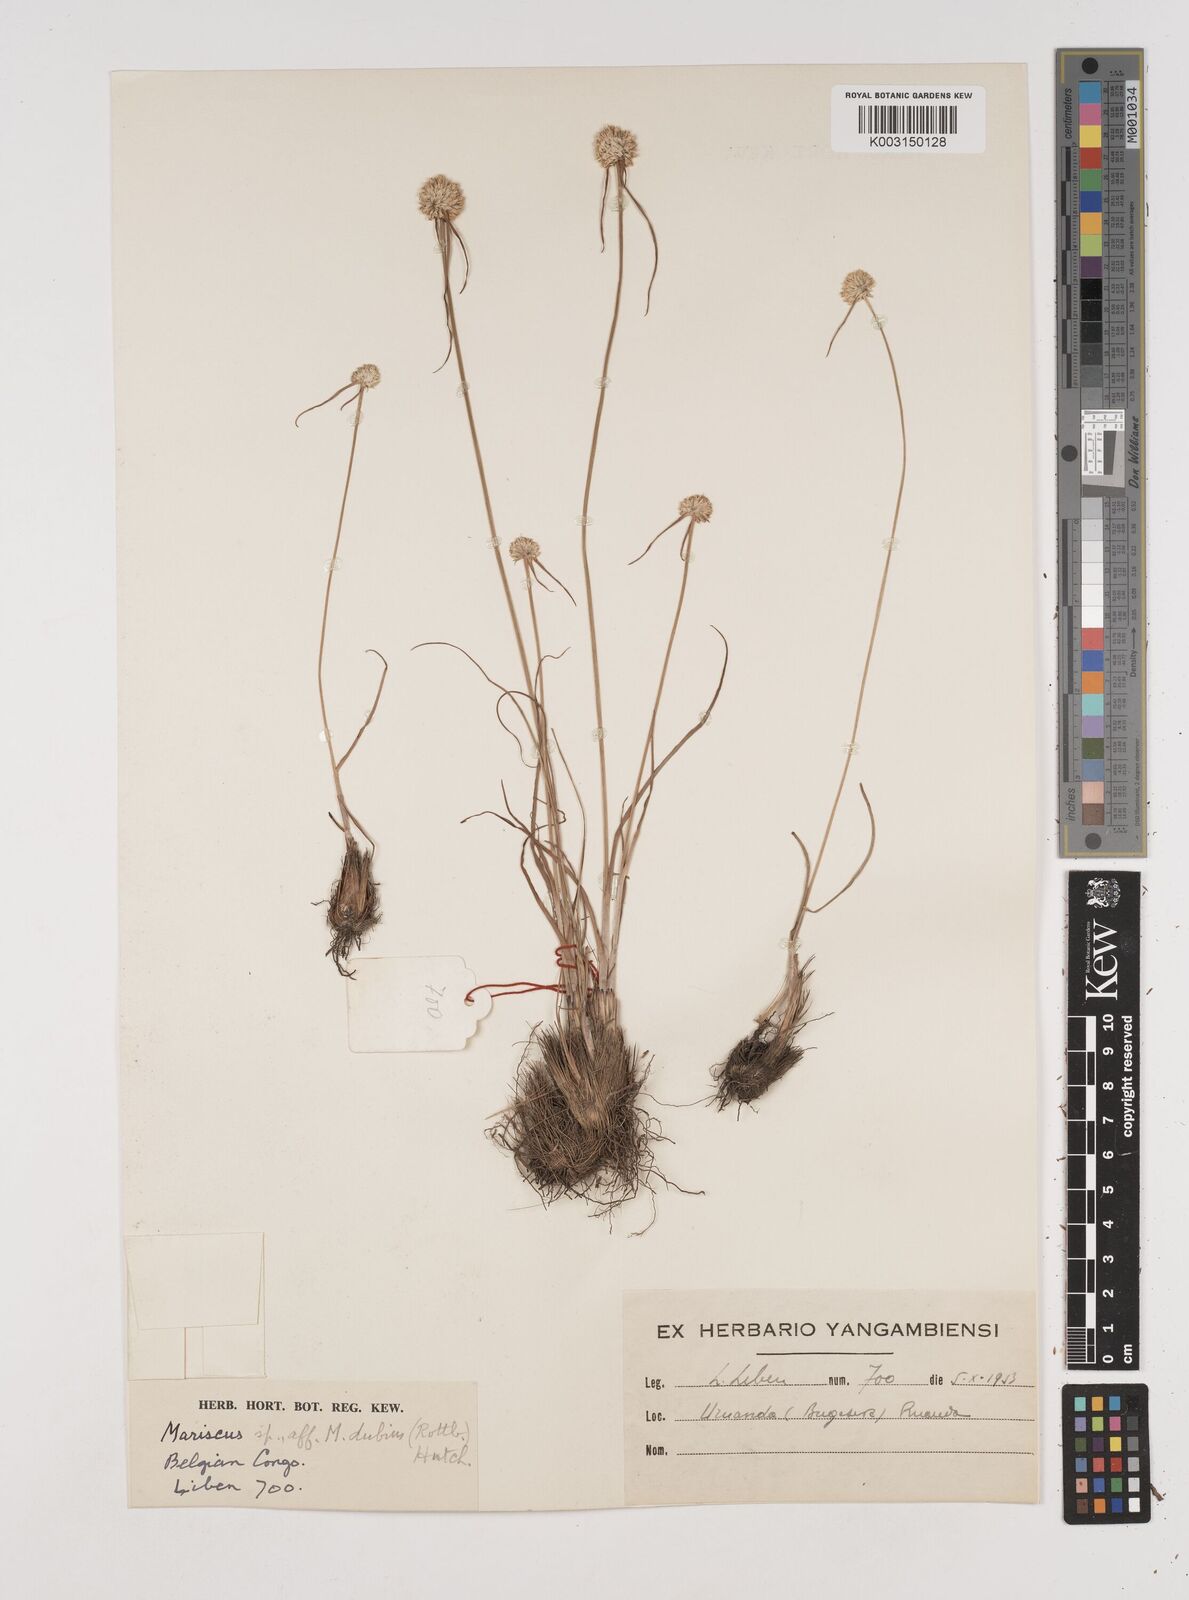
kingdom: Plantae
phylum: Tracheophyta
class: Liliopsida
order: Poales
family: Cyperaceae
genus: Cyperus
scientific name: Cyperus mollipes
